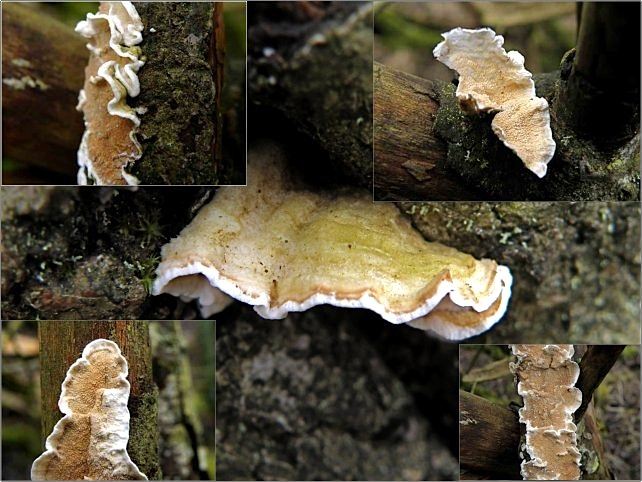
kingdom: Fungi
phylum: Basidiomycota
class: Agaricomycetes
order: Polyporales
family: Irpicaceae
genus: Byssomerulius
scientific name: Byssomerulius corium
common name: læder-åresvamp
